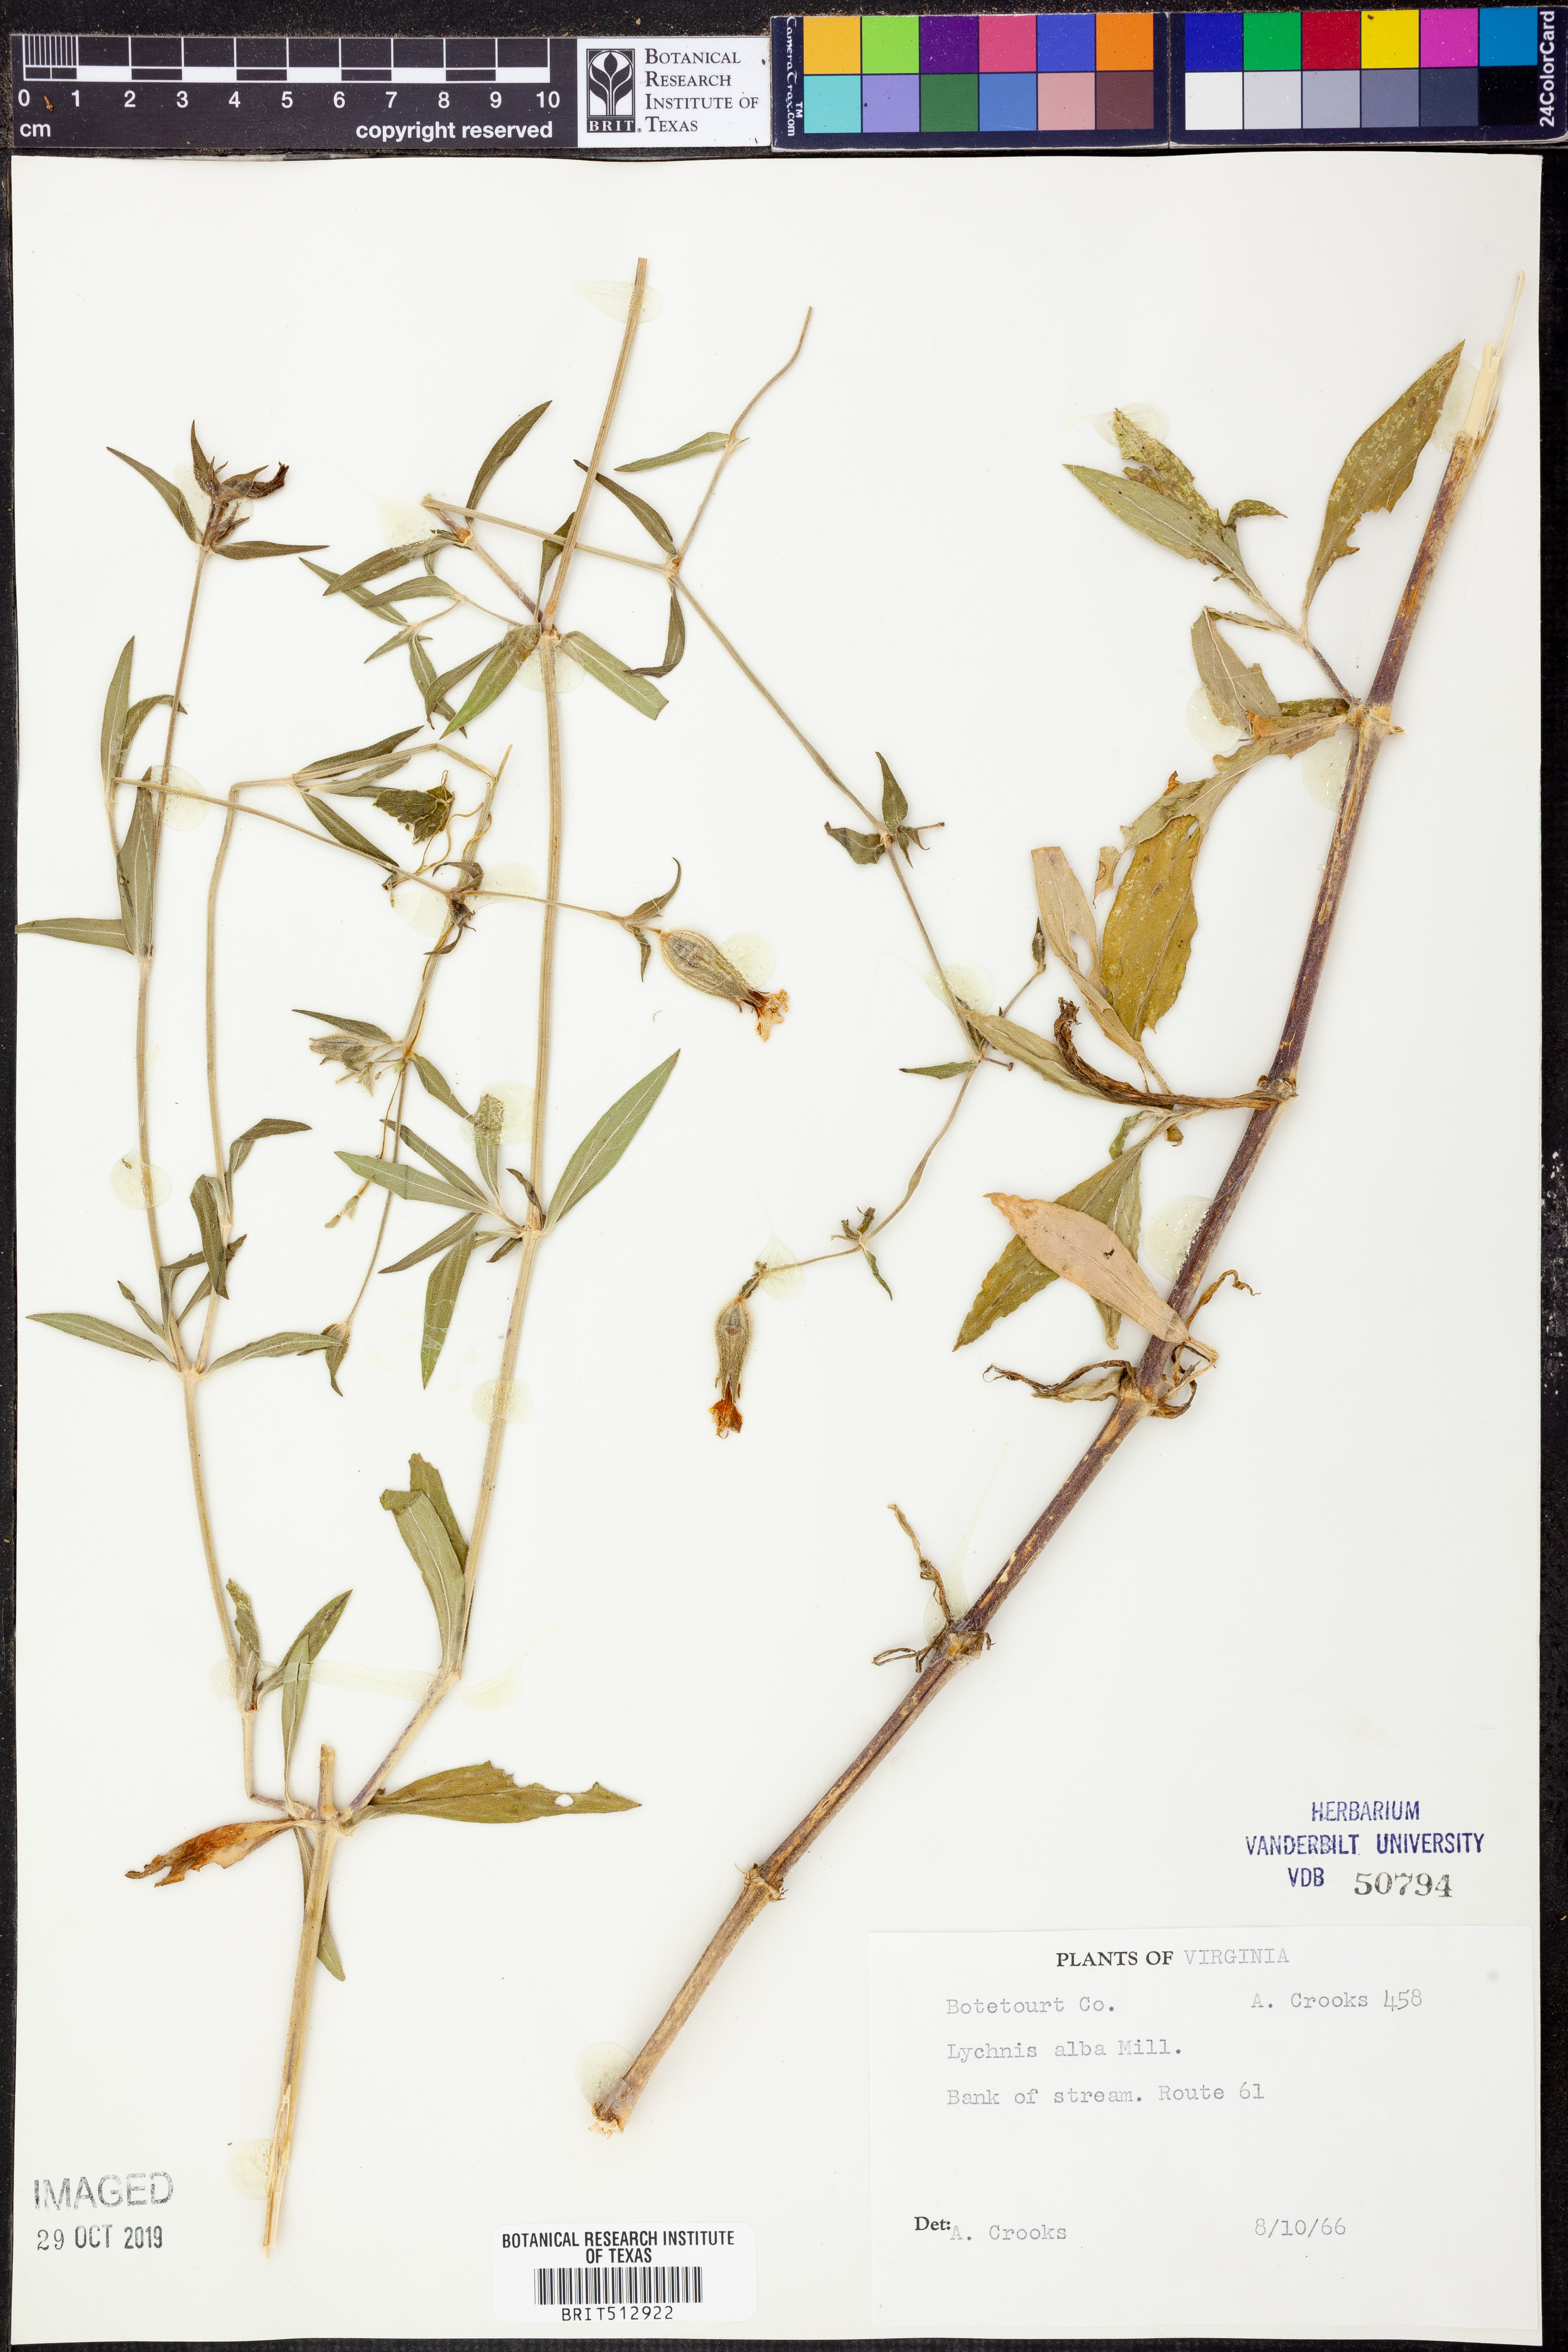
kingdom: Plantae
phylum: Tracheophyta
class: Magnoliopsida
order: Caryophyllales
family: Caryophyllaceae
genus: Silene
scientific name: Silene latifolia
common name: White campion
